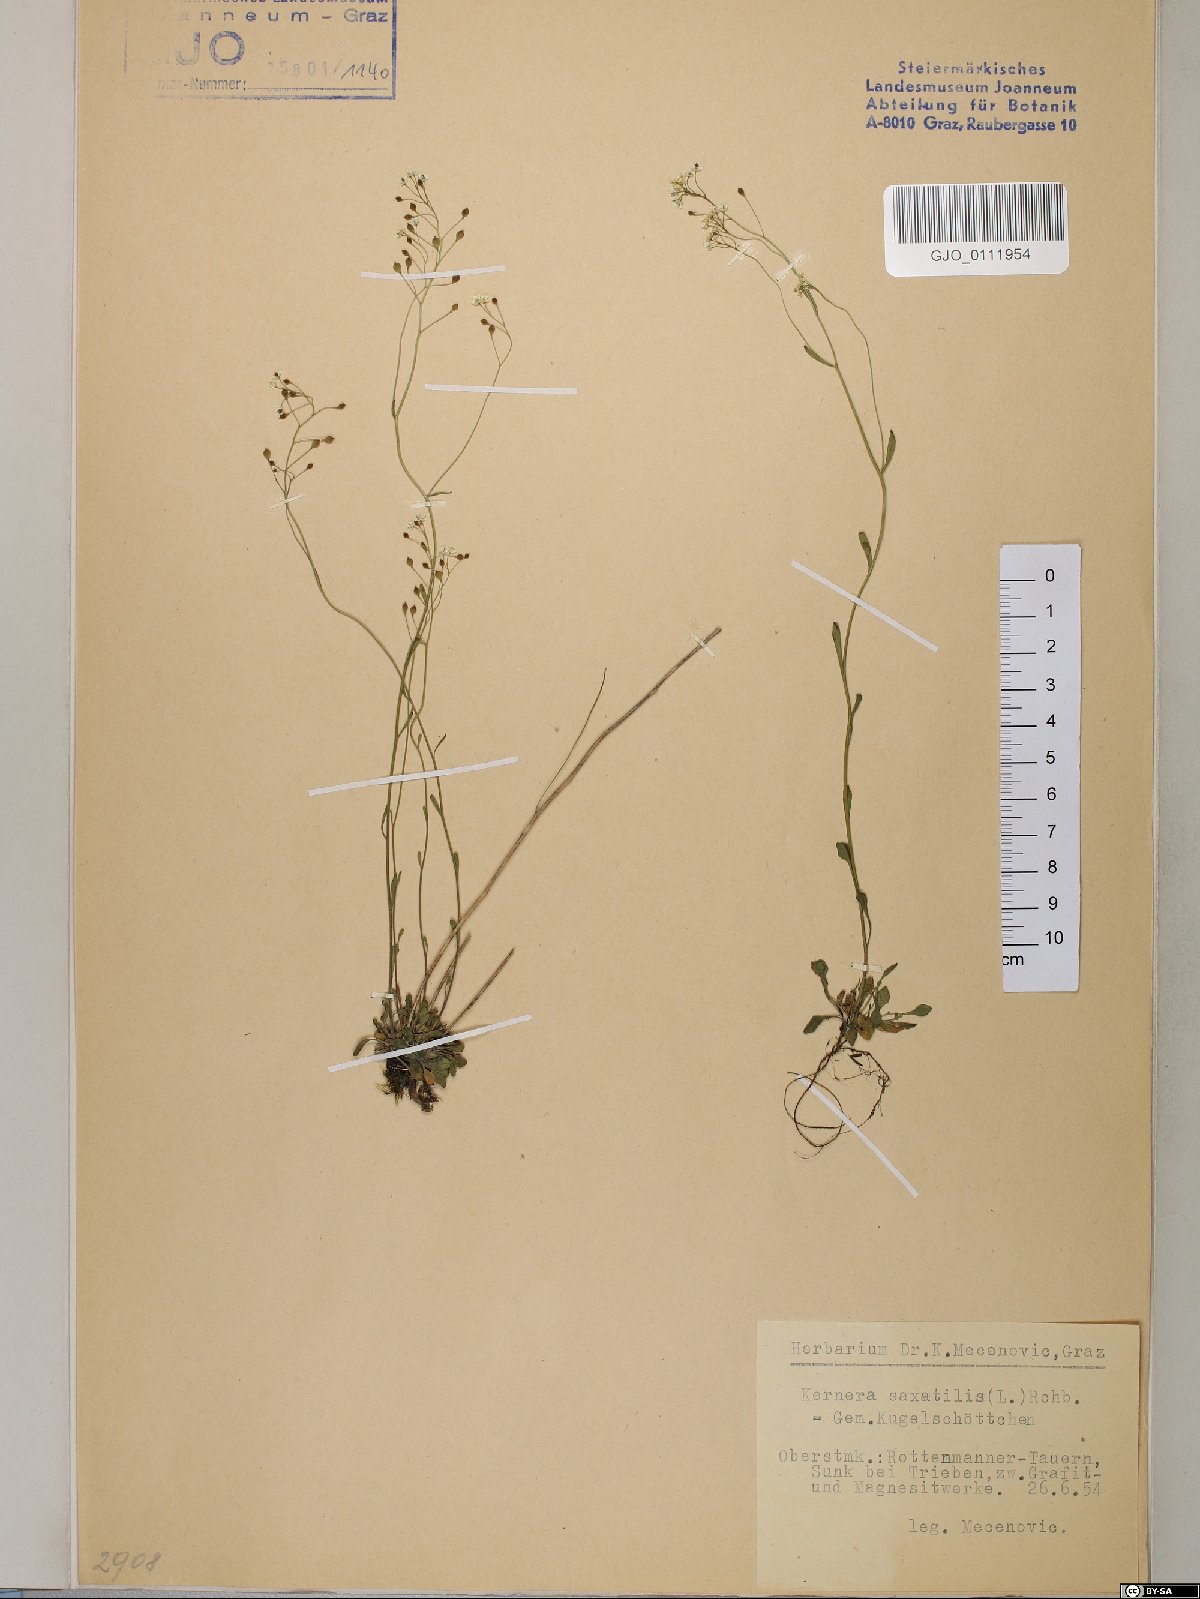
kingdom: Plantae
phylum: Tracheophyta
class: Magnoliopsida
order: Brassicales
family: Brassicaceae
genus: Kernera
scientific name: Kernera saxatilis
